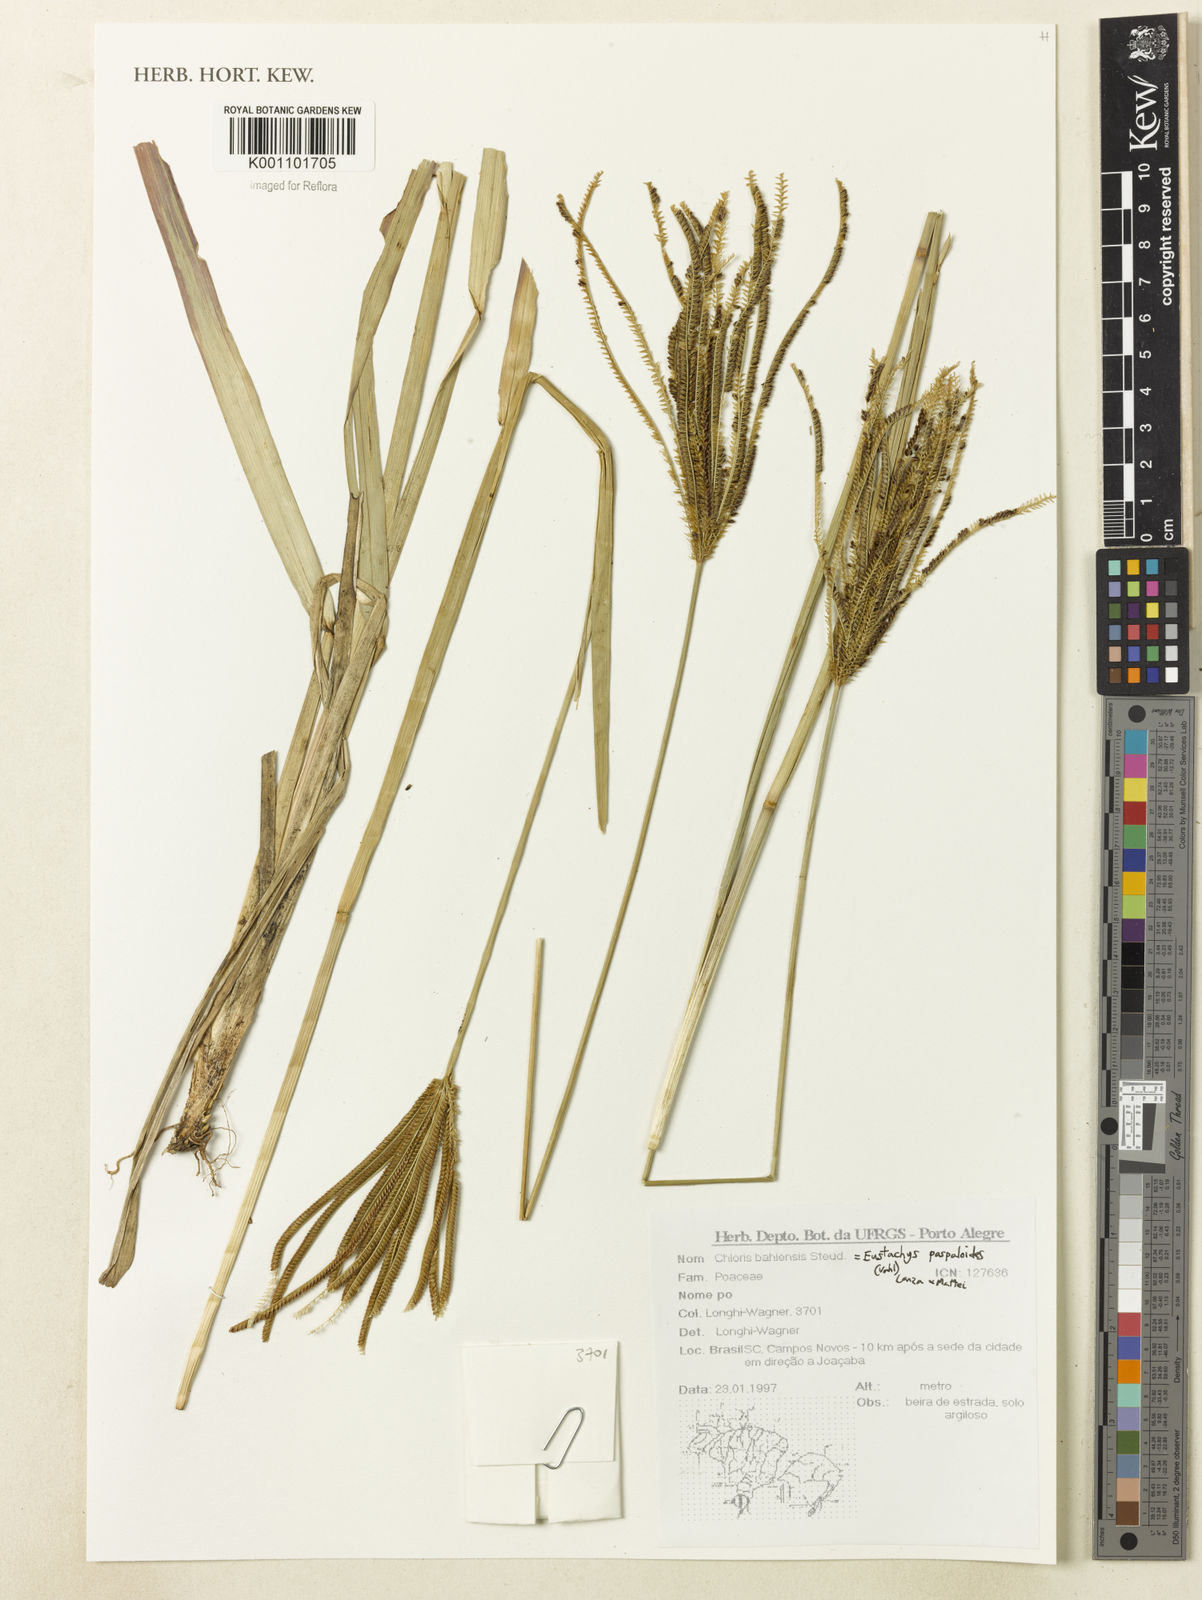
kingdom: Plantae
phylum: Tracheophyta
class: Liliopsida
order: Poales
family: Poaceae
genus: Eustachys
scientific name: Eustachys paspaloides
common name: Caribbean fingergrass
